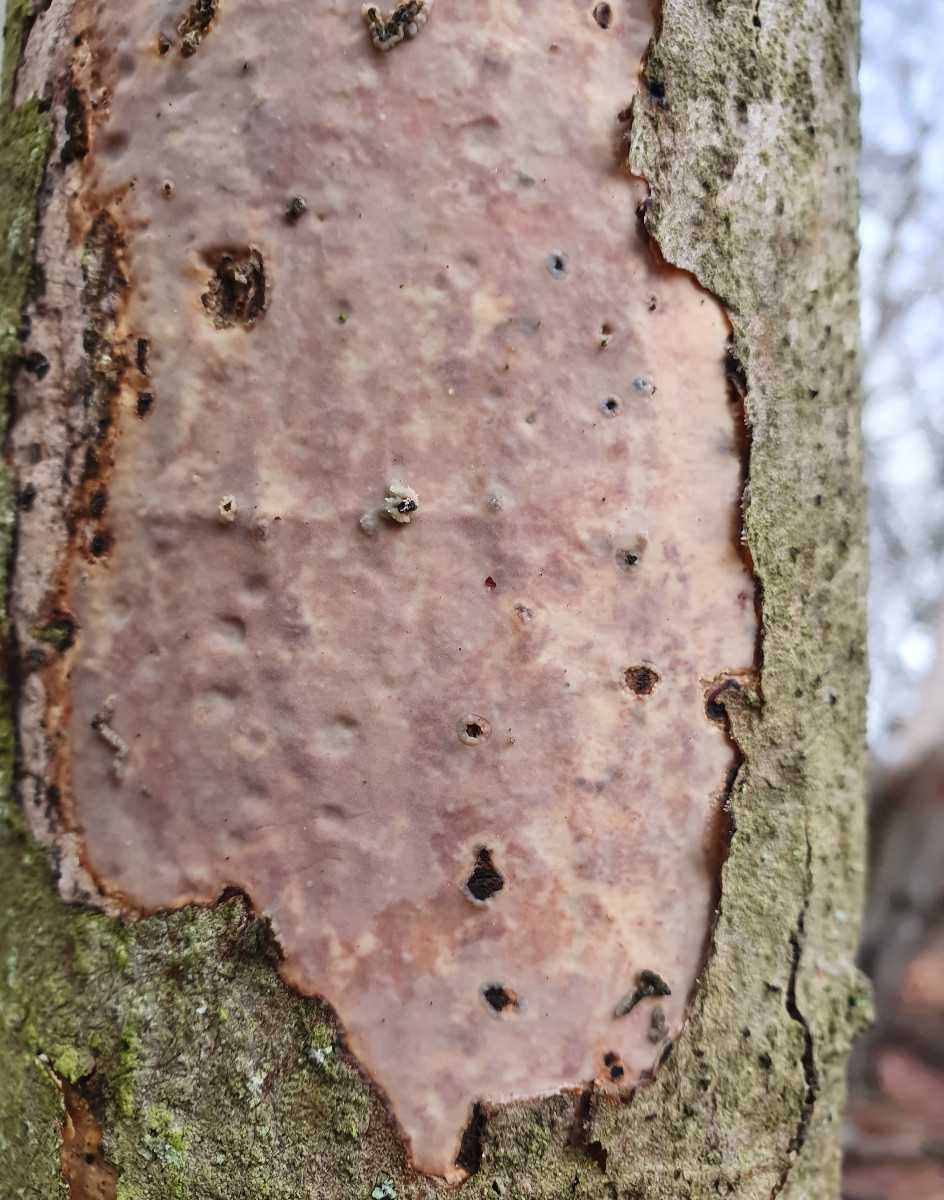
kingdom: Fungi
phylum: Basidiomycota
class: Agaricomycetes
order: Corticiales
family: Vuilleminiaceae
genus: Vuilleminia
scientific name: Vuilleminia comedens
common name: almindelig barksprænger
